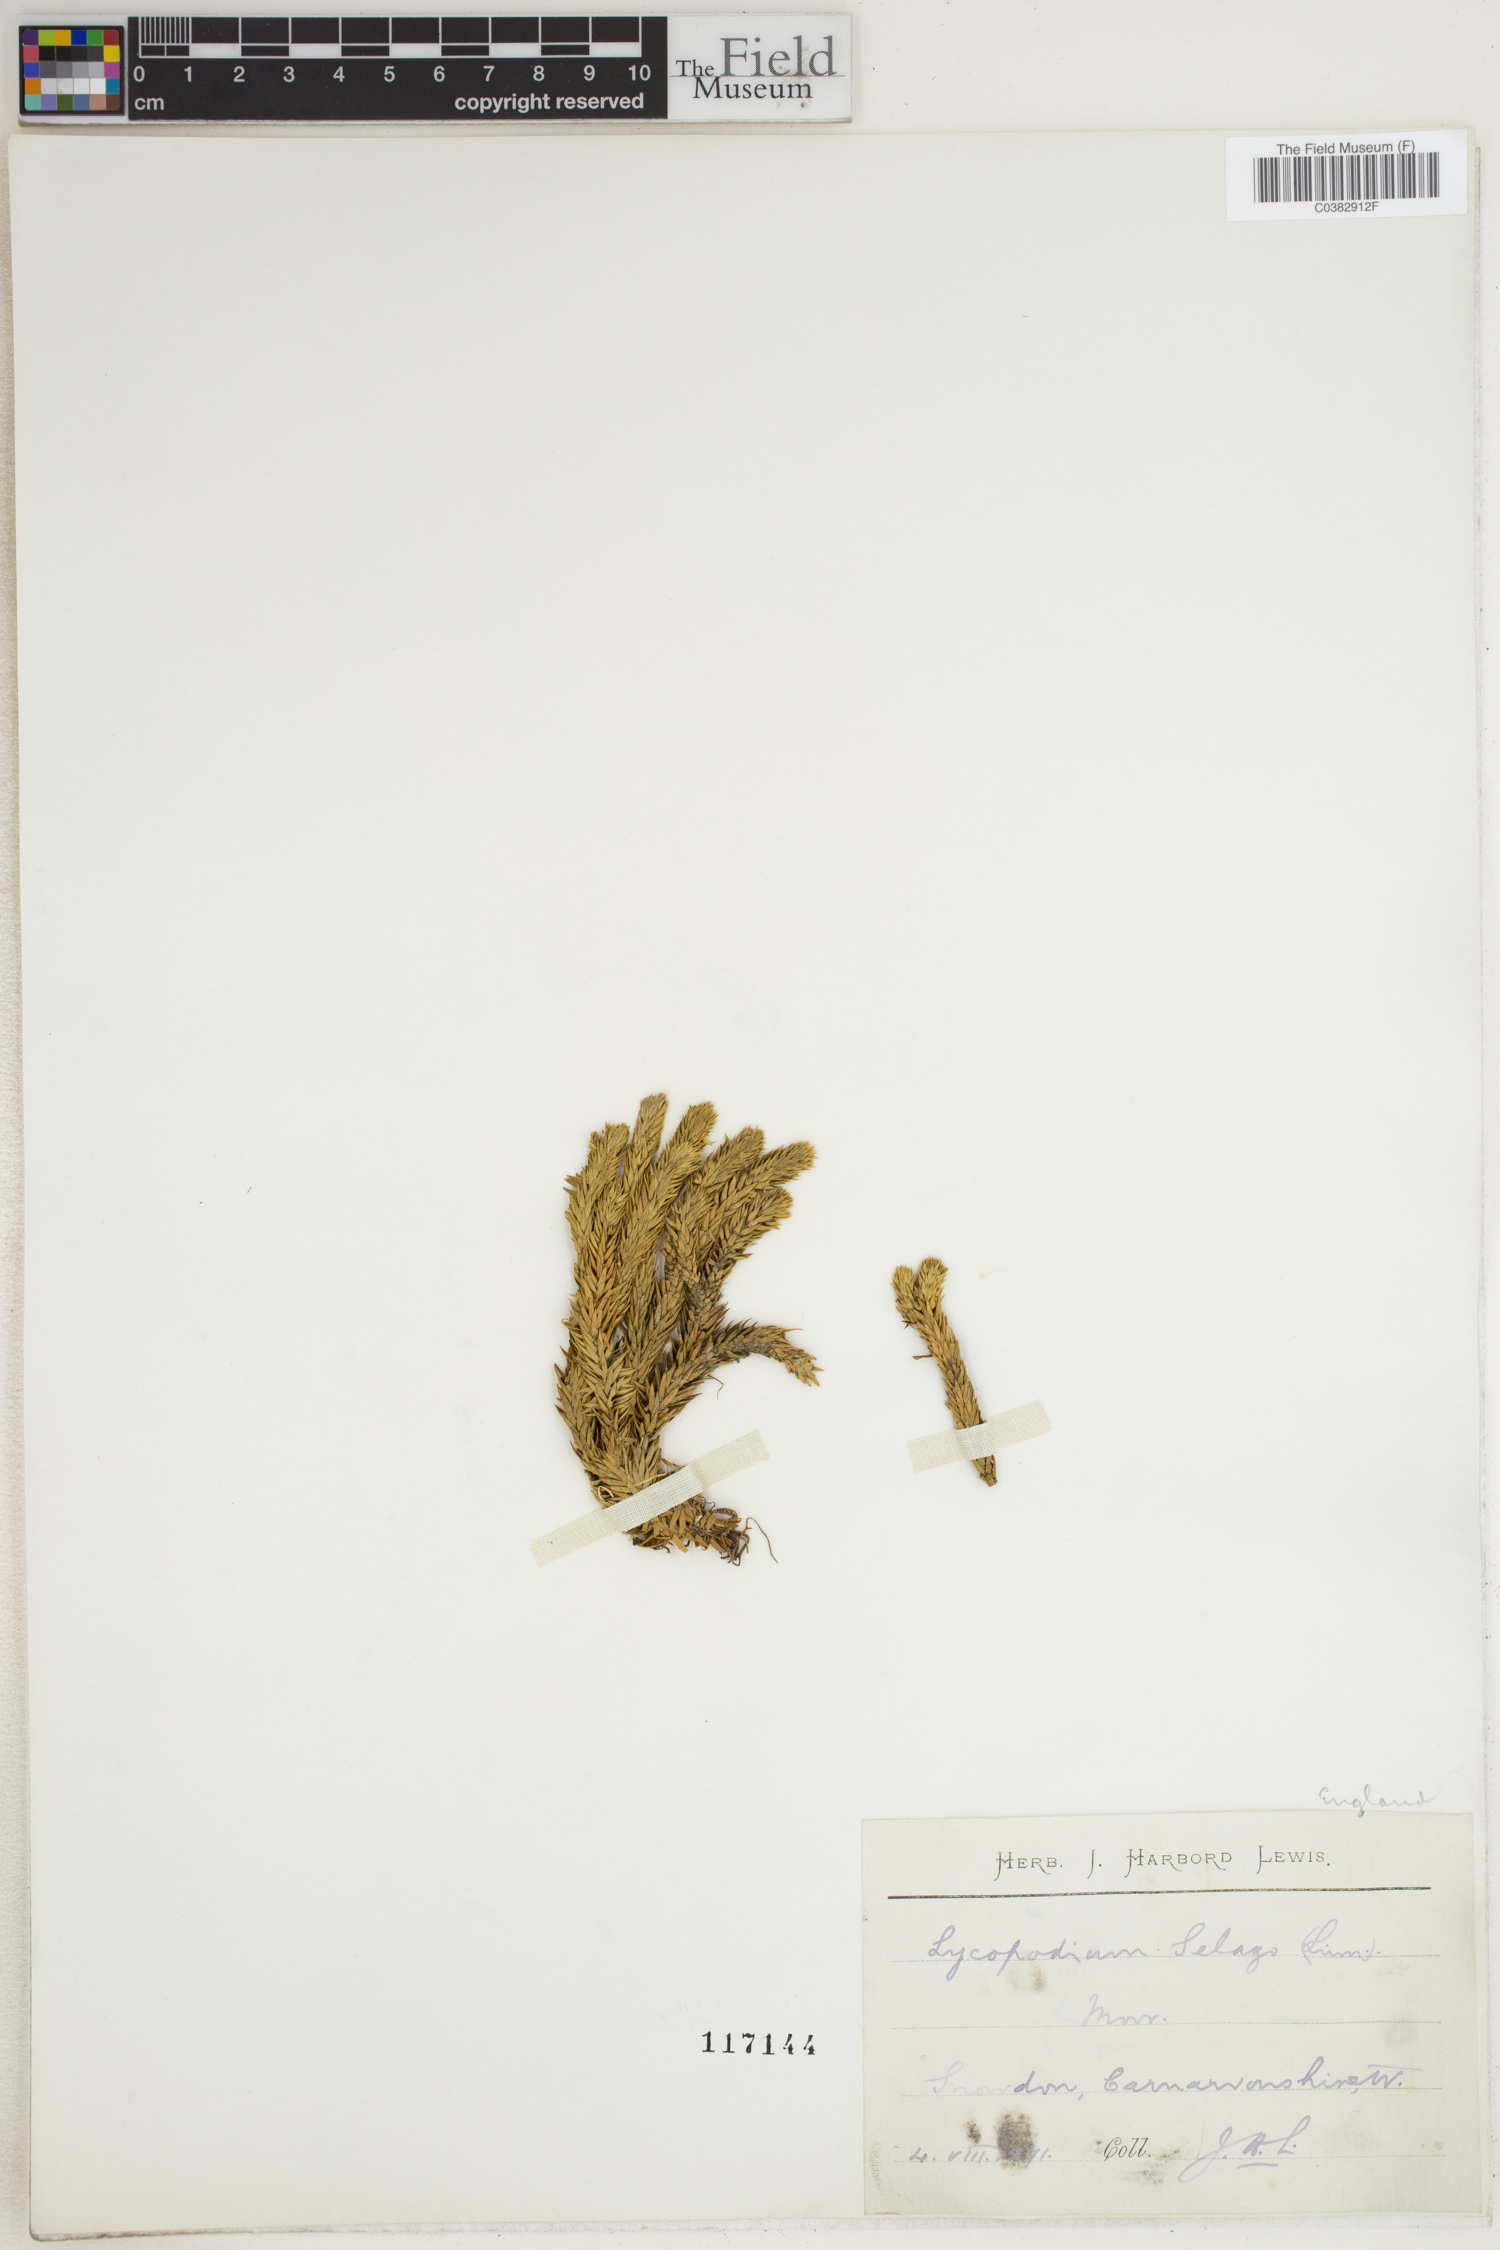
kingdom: Plantae
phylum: Tracheophyta
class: Lycopodiopsida
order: Lycopodiales
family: Lycopodiaceae
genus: Huperzia
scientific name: Huperzia selago
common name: Northern firmoss
